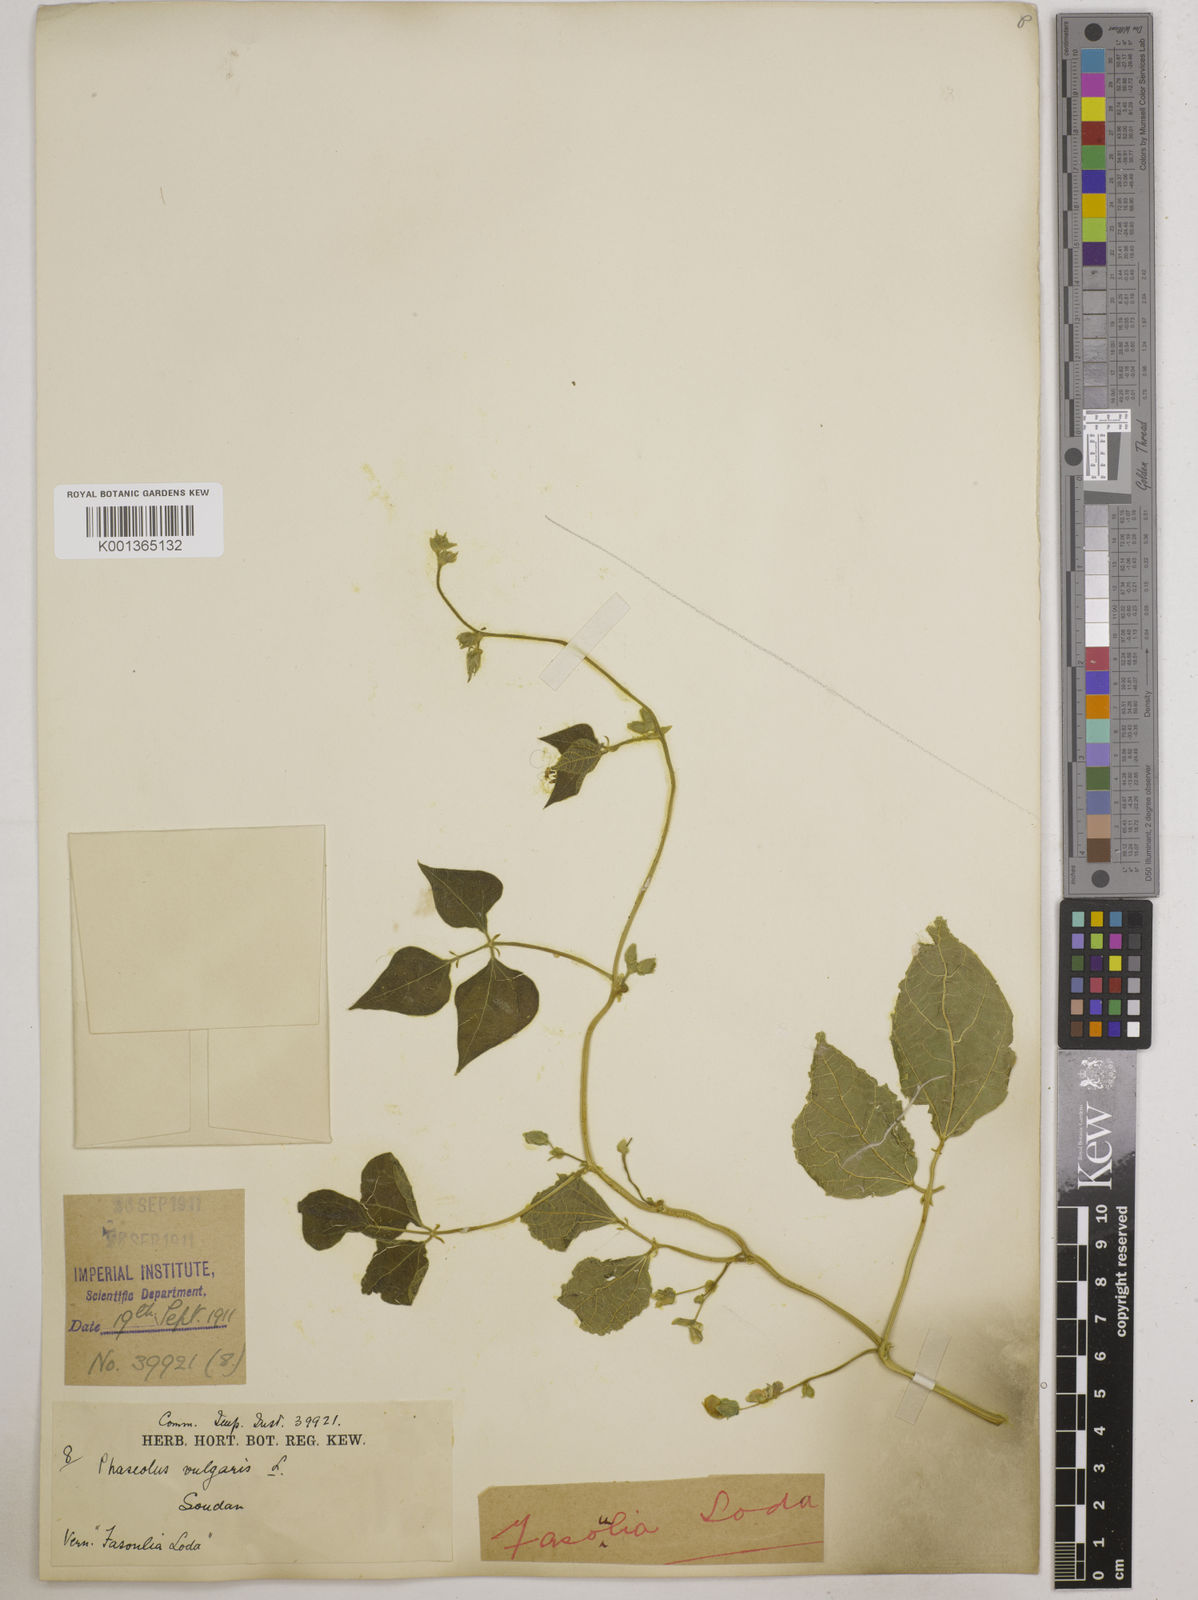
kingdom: Plantae
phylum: Tracheophyta
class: Magnoliopsida
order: Fabales
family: Fabaceae
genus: Phaseolus
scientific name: Phaseolus vulgaris
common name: Bean
